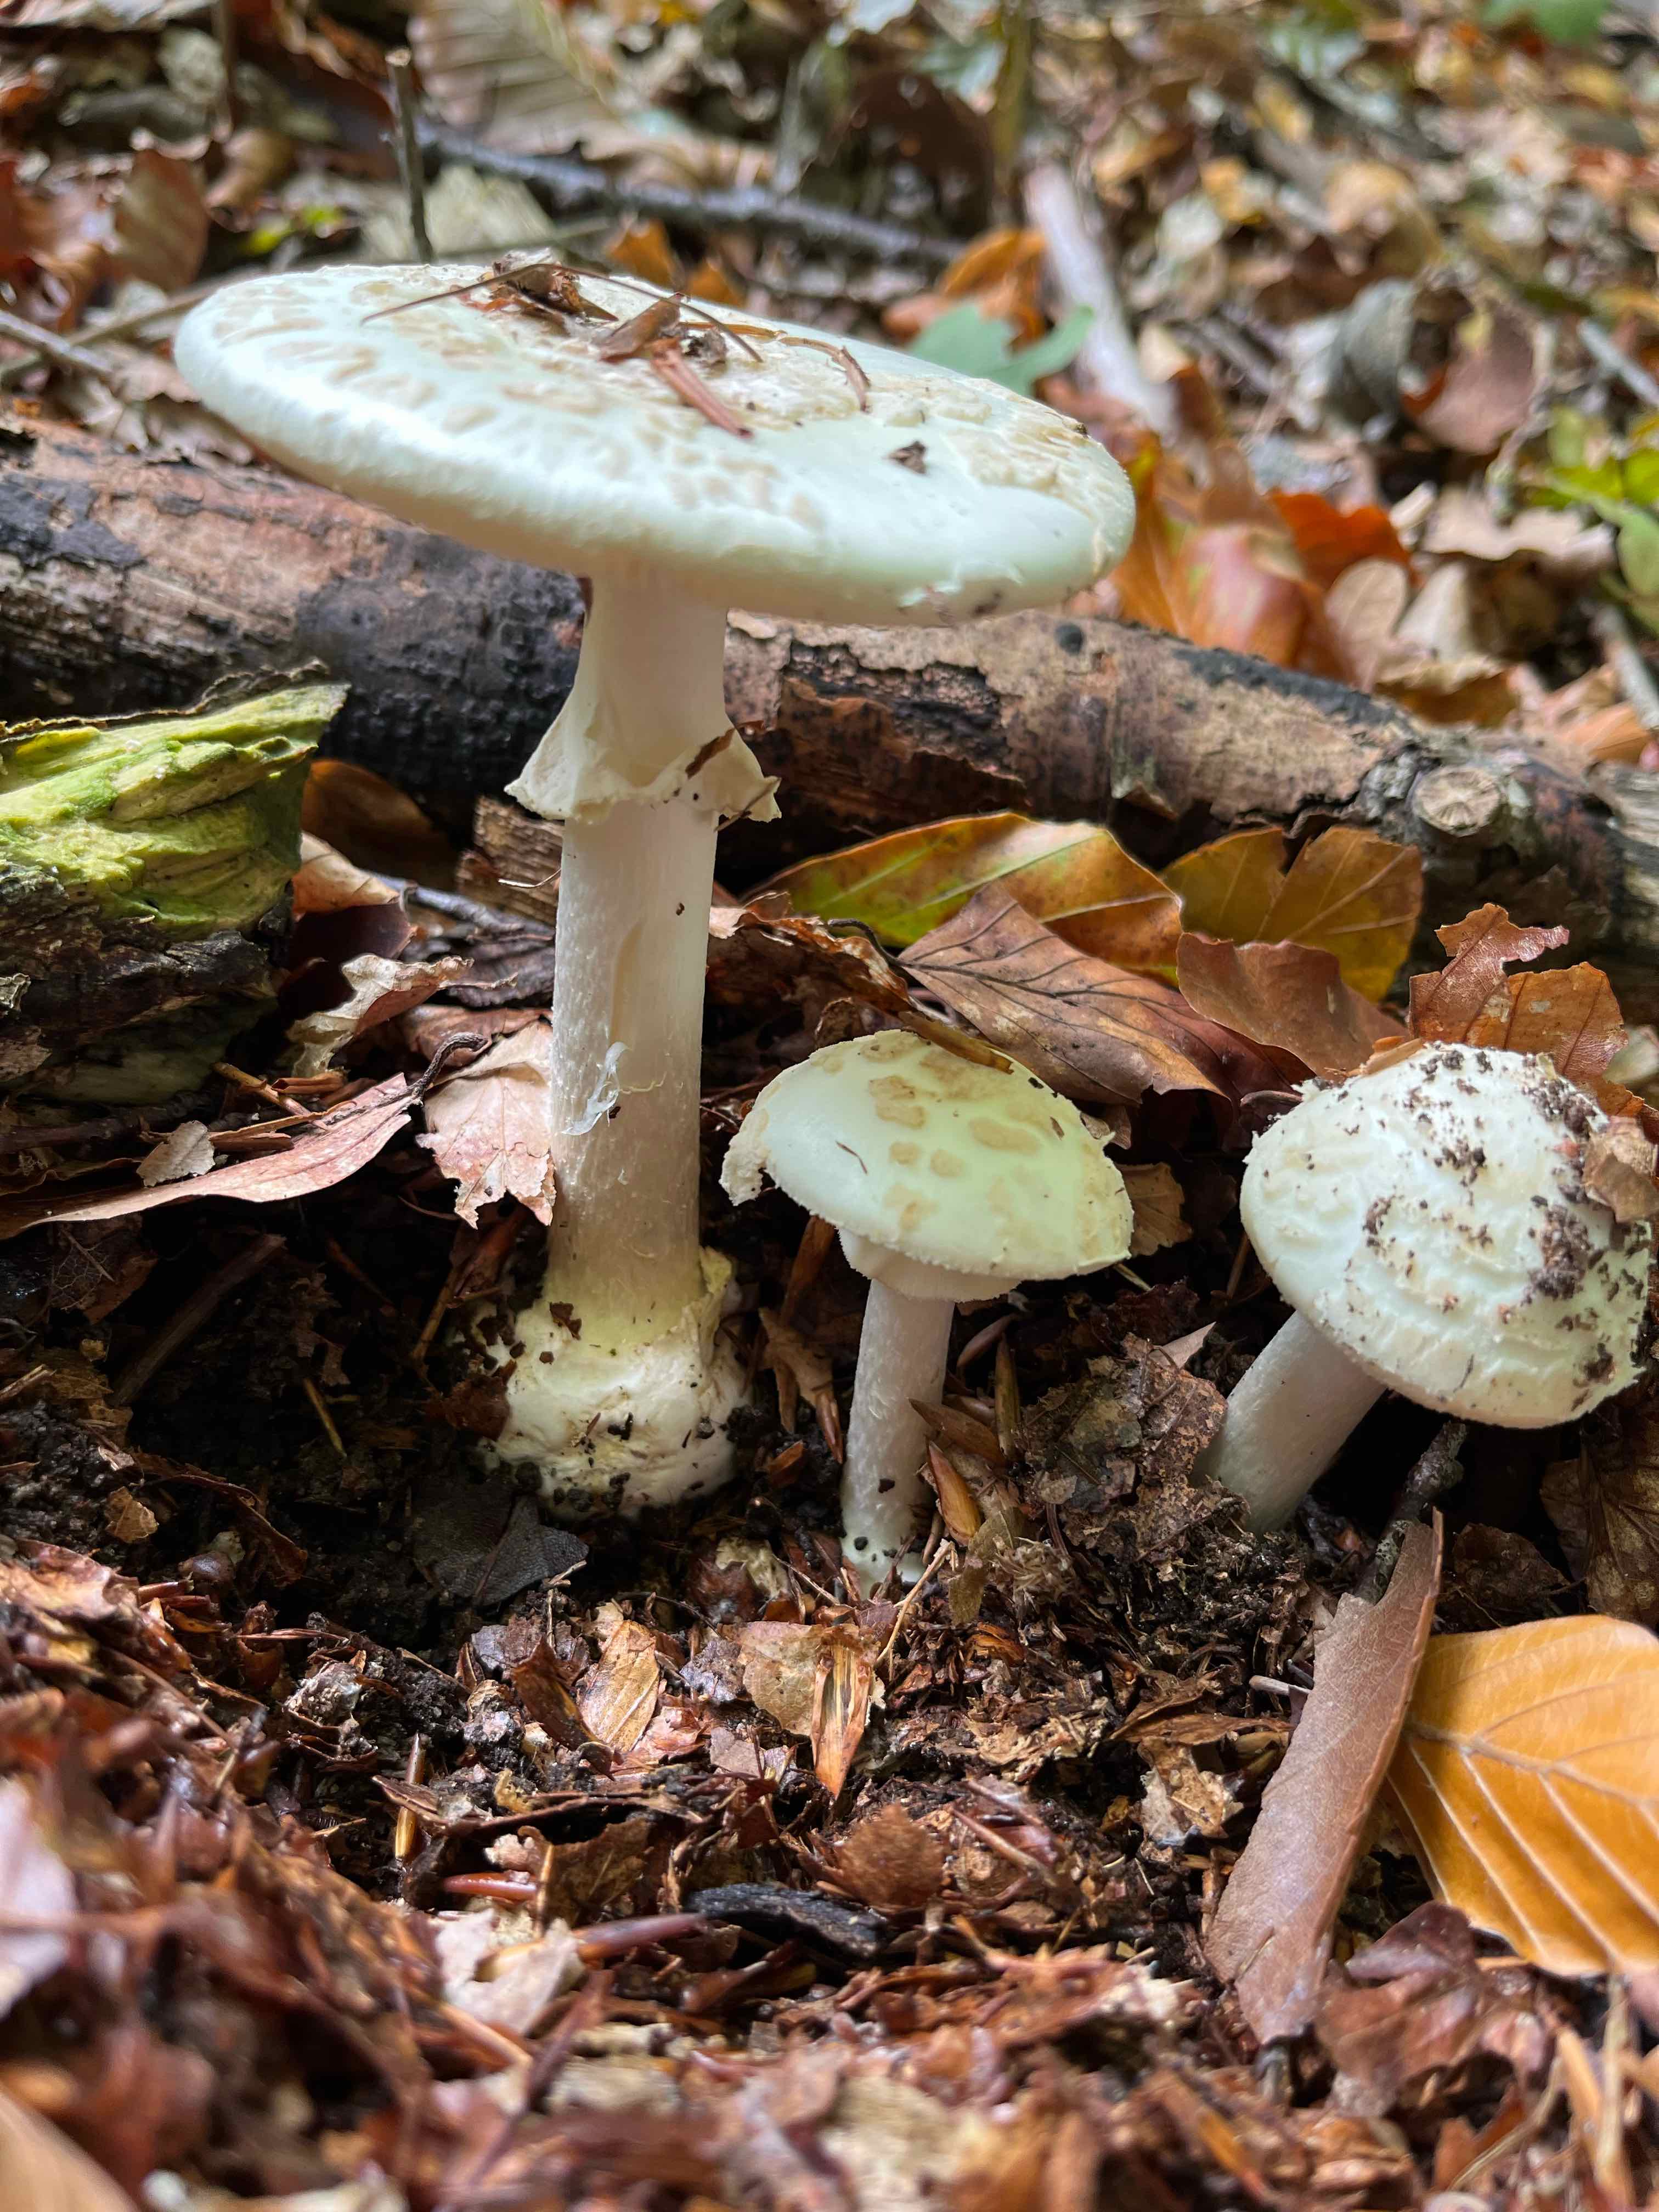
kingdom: Fungi
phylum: Basidiomycota
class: Agaricomycetes
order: Agaricales
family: Amanitaceae
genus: Amanita
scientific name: Amanita citrina
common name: kugleknoldet fluesvamp
